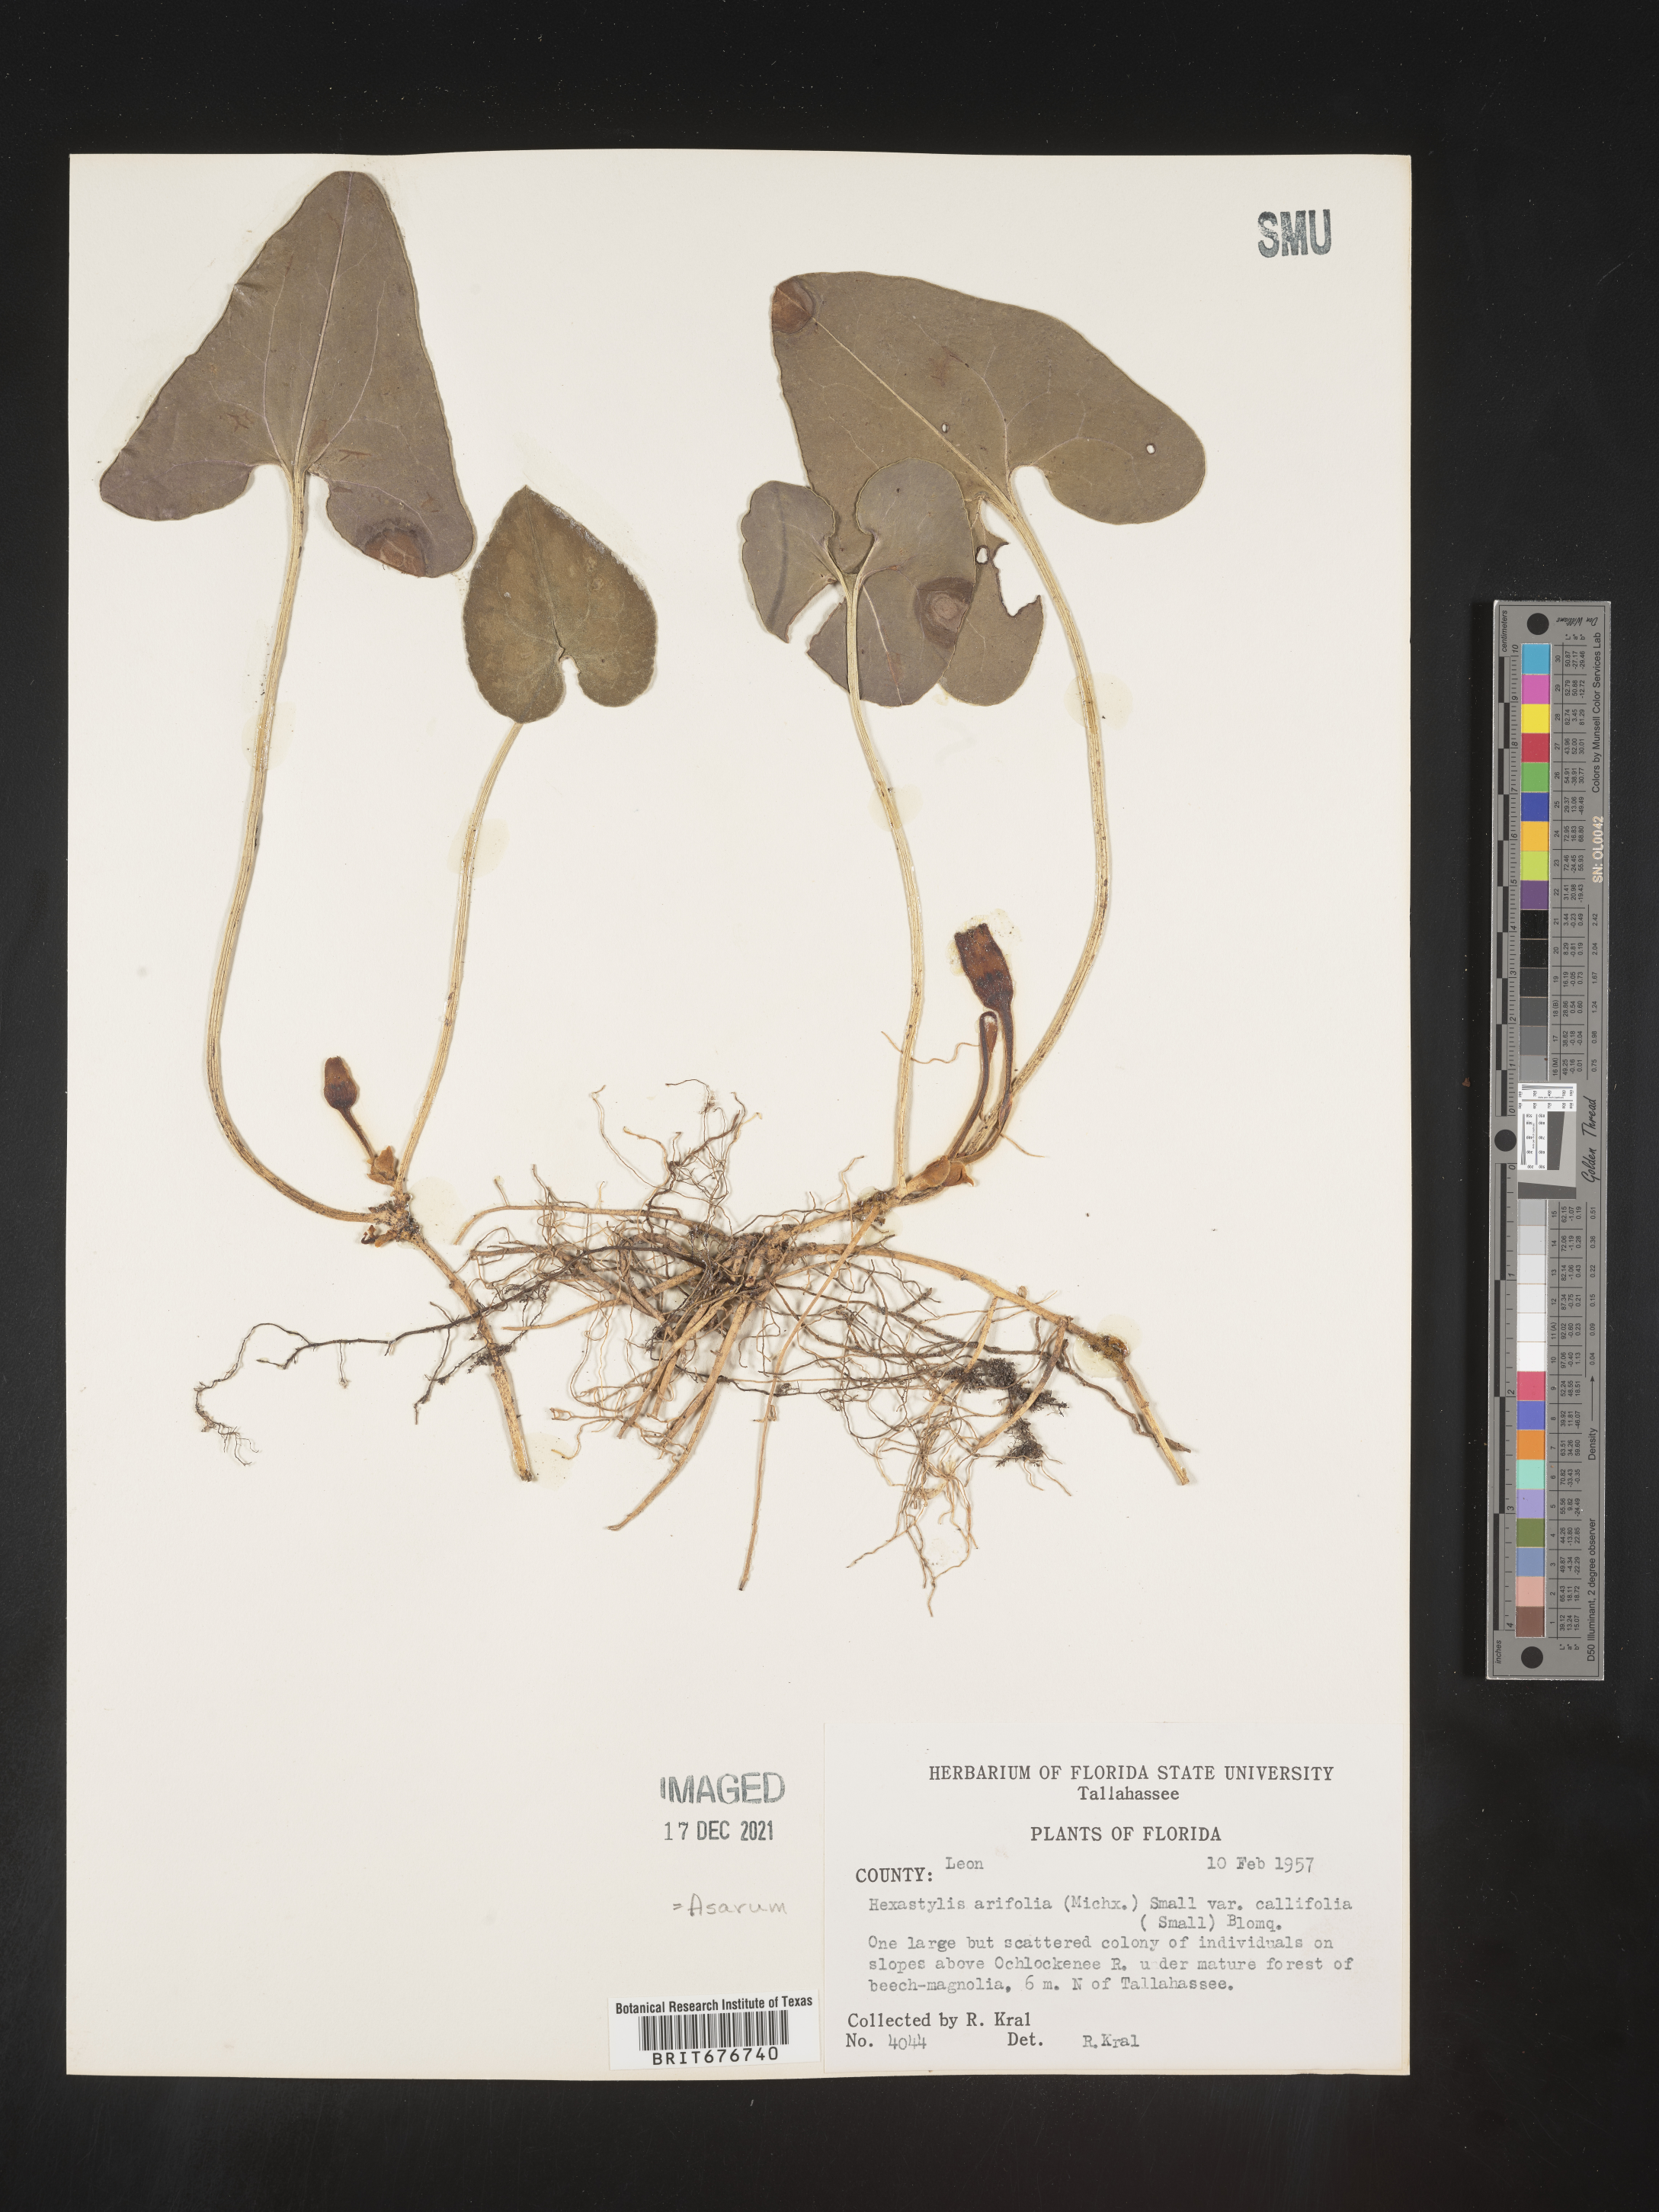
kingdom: Plantae
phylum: Tracheophyta
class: Magnoliopsida
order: Piperales
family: Aristolochiaceae
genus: Hexastylis
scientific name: Hexastylis arifolia
